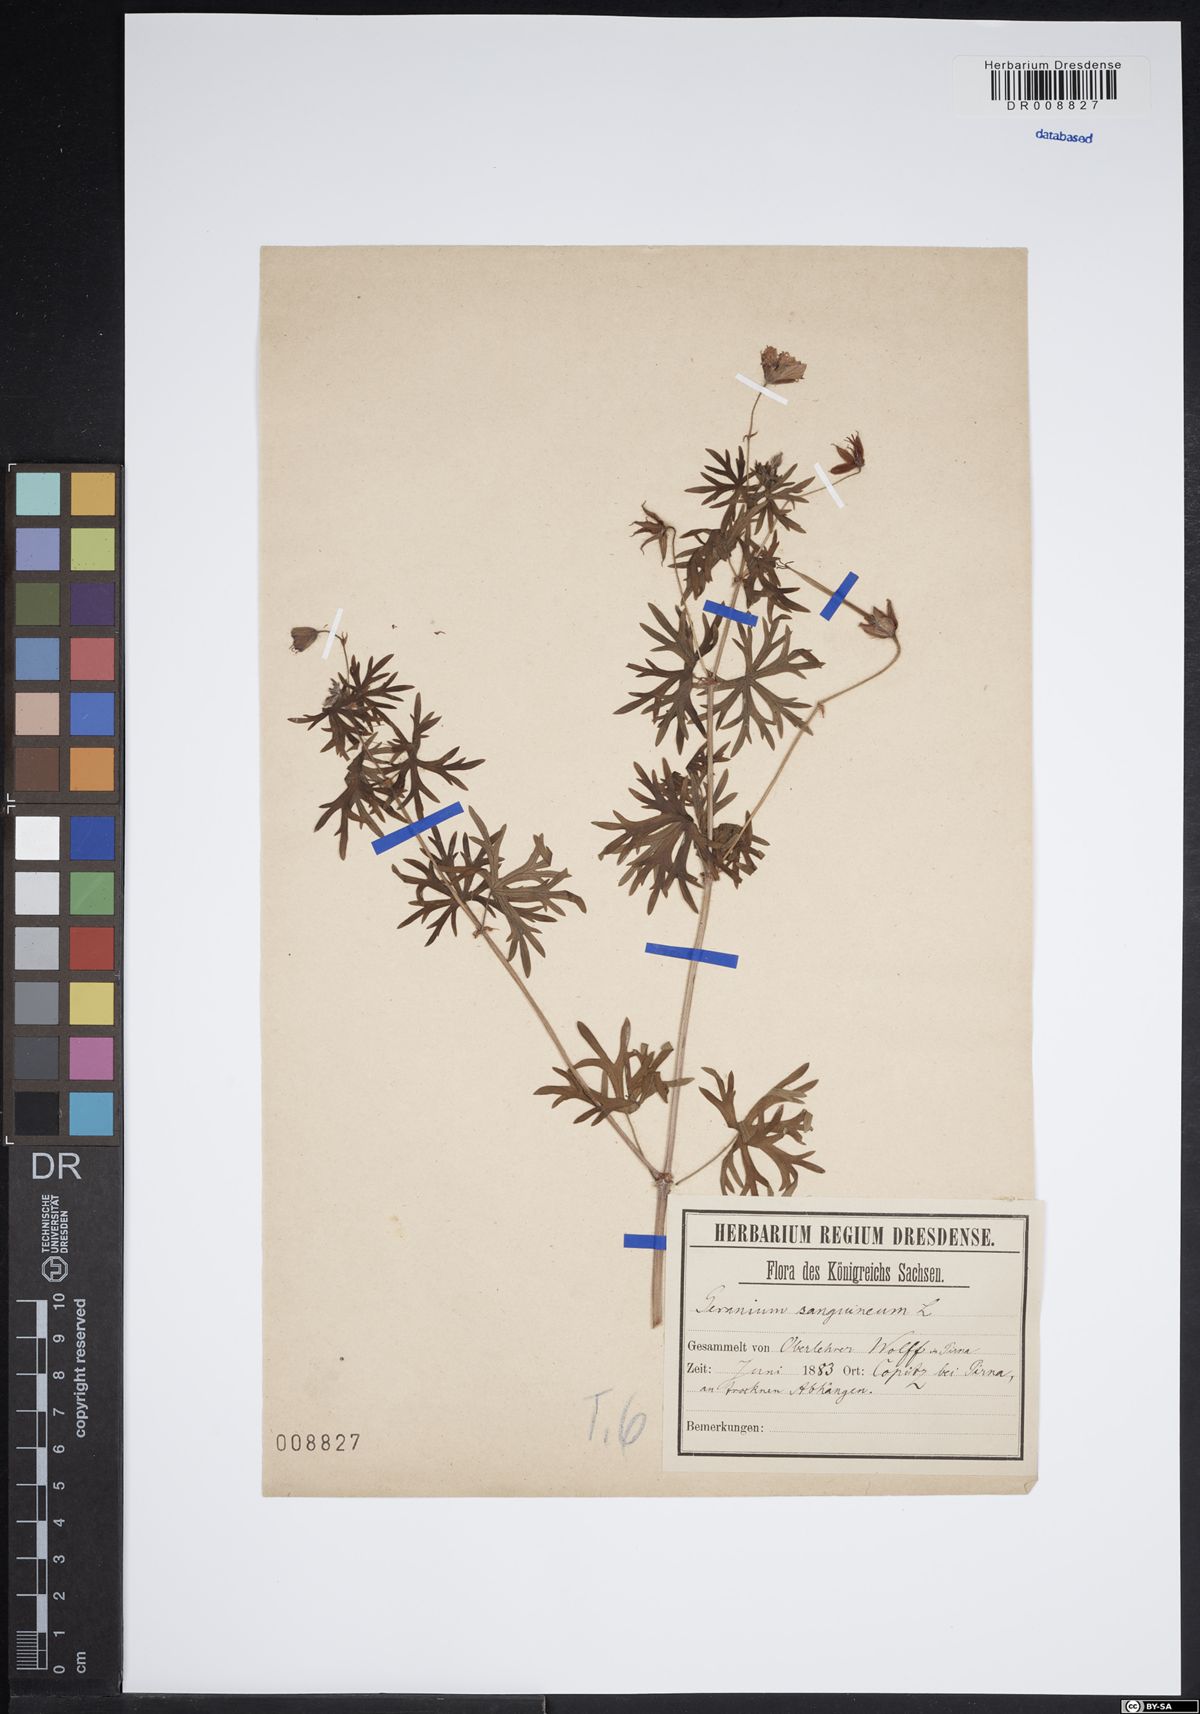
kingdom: Plantae
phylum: Tracheophyta
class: Magnoliopsida
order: Geraniales
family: Geraniaceae
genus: Geranium
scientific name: Geranium sanguineum
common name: Bloody crane's-bill
